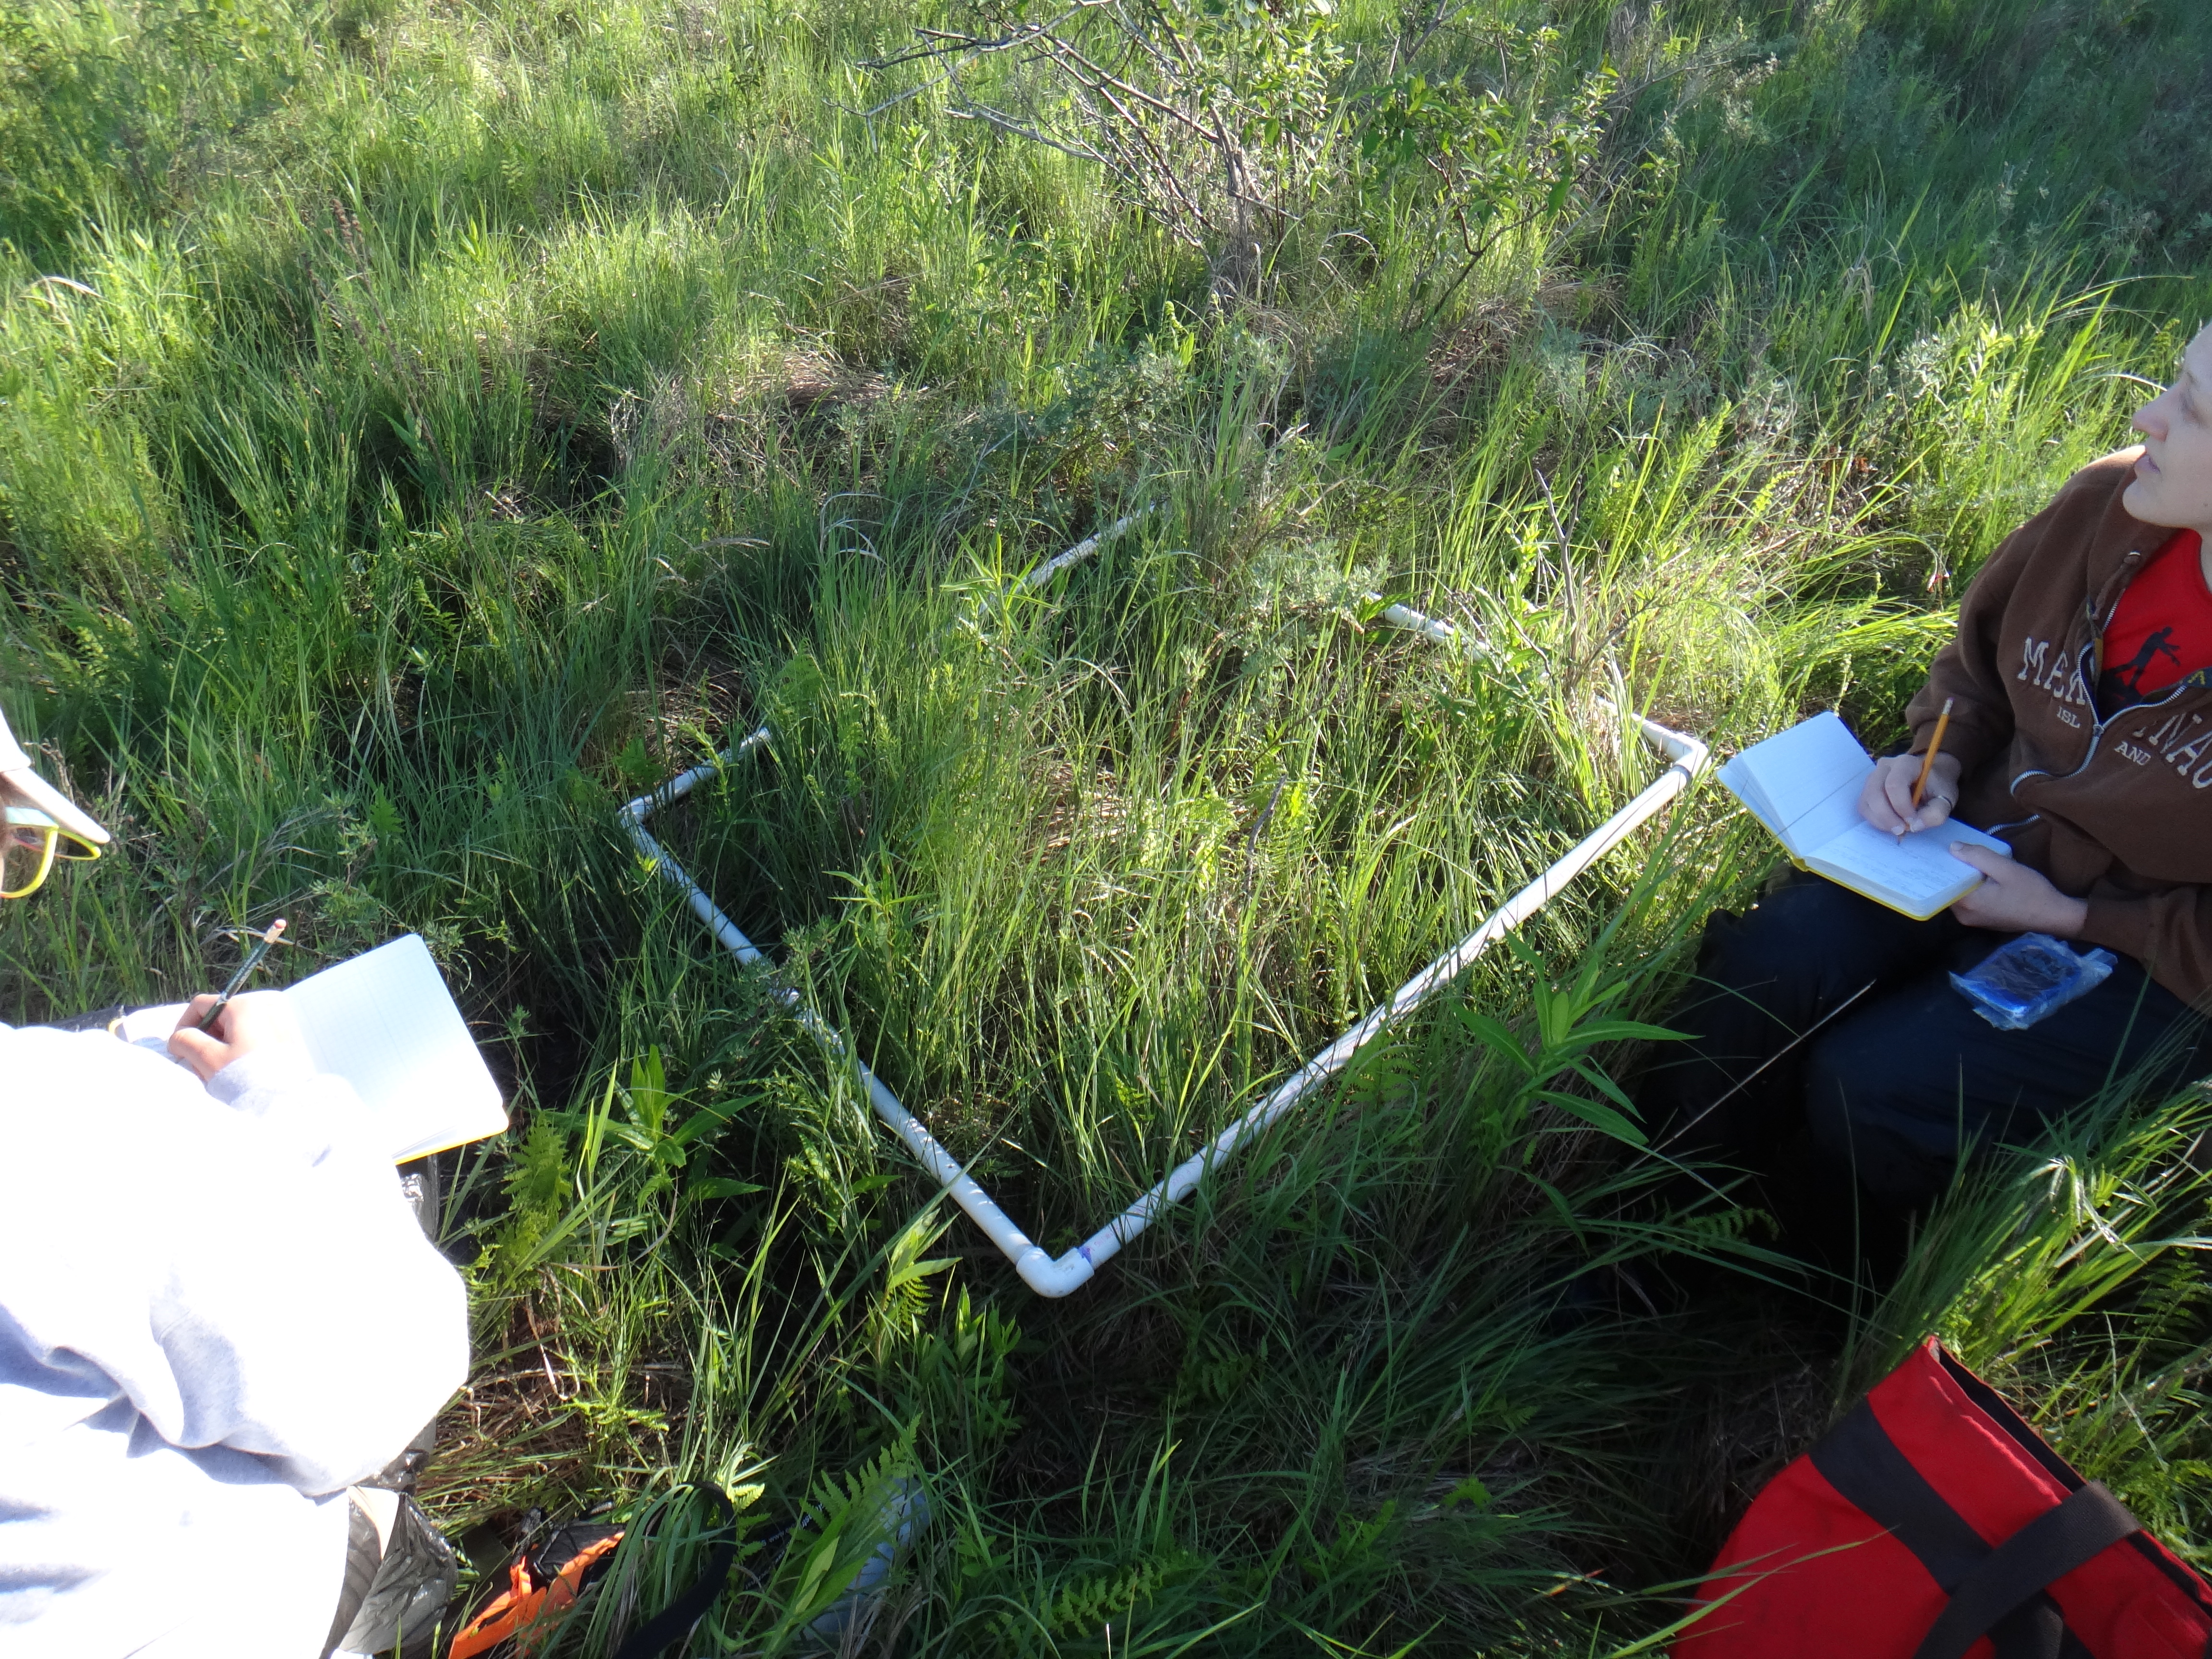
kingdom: Plantae
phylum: Tracheophyta
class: Magnoliopsida
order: Gentianales
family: Rubiaceae
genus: Galium
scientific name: Galium boreale
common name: Northern bedstraw
